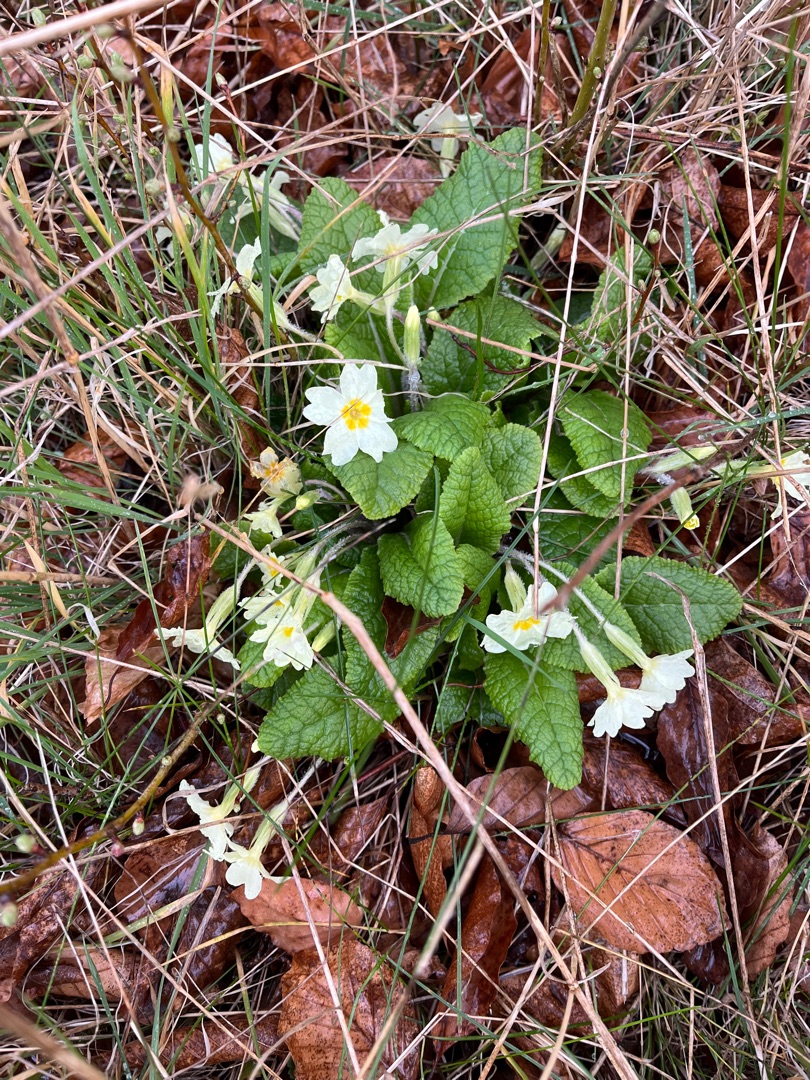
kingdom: Plantae
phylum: Tracheophyta
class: Magnoliopsida
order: Ericales
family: Primulaceae
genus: Primula
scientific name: Primula vulgaris
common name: Storblomstret kodriver
